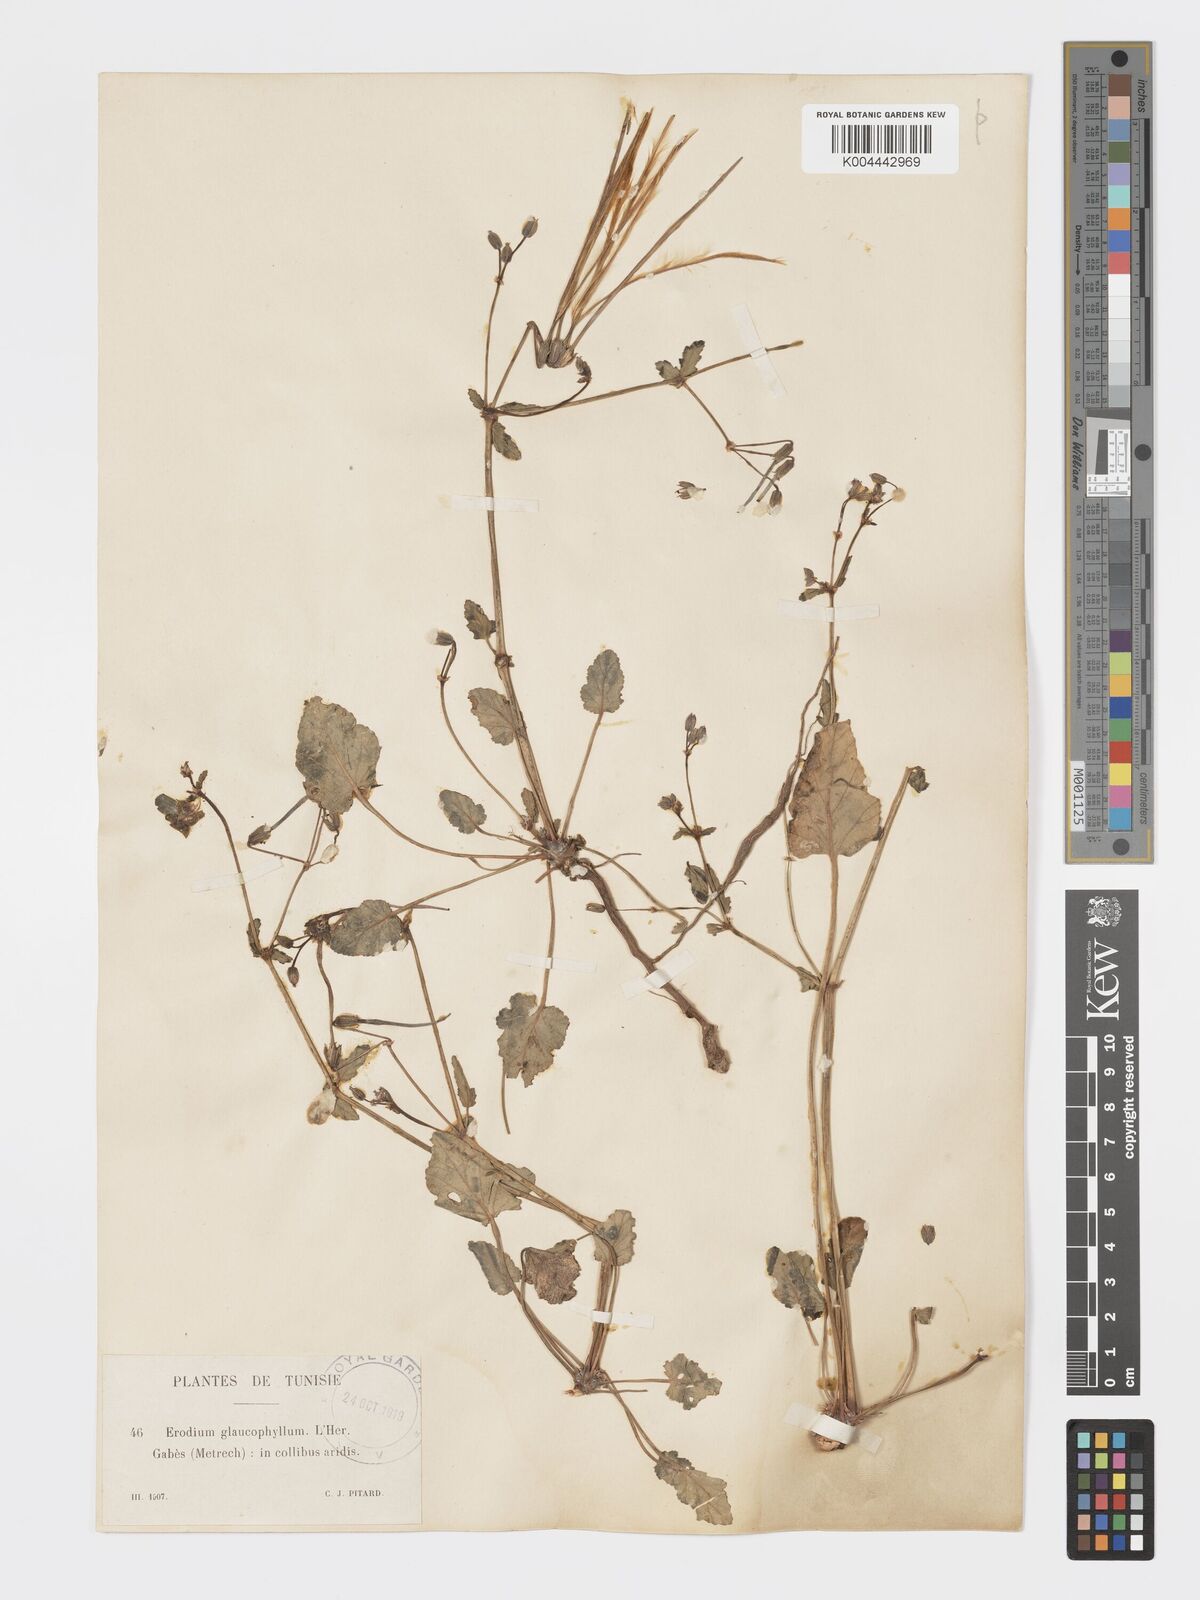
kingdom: Plantae
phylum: Tracheophyta
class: Magnoliopsida
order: Geraniales
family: Geraniaceae
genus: Erodium
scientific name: Erodium glaucophyllum
